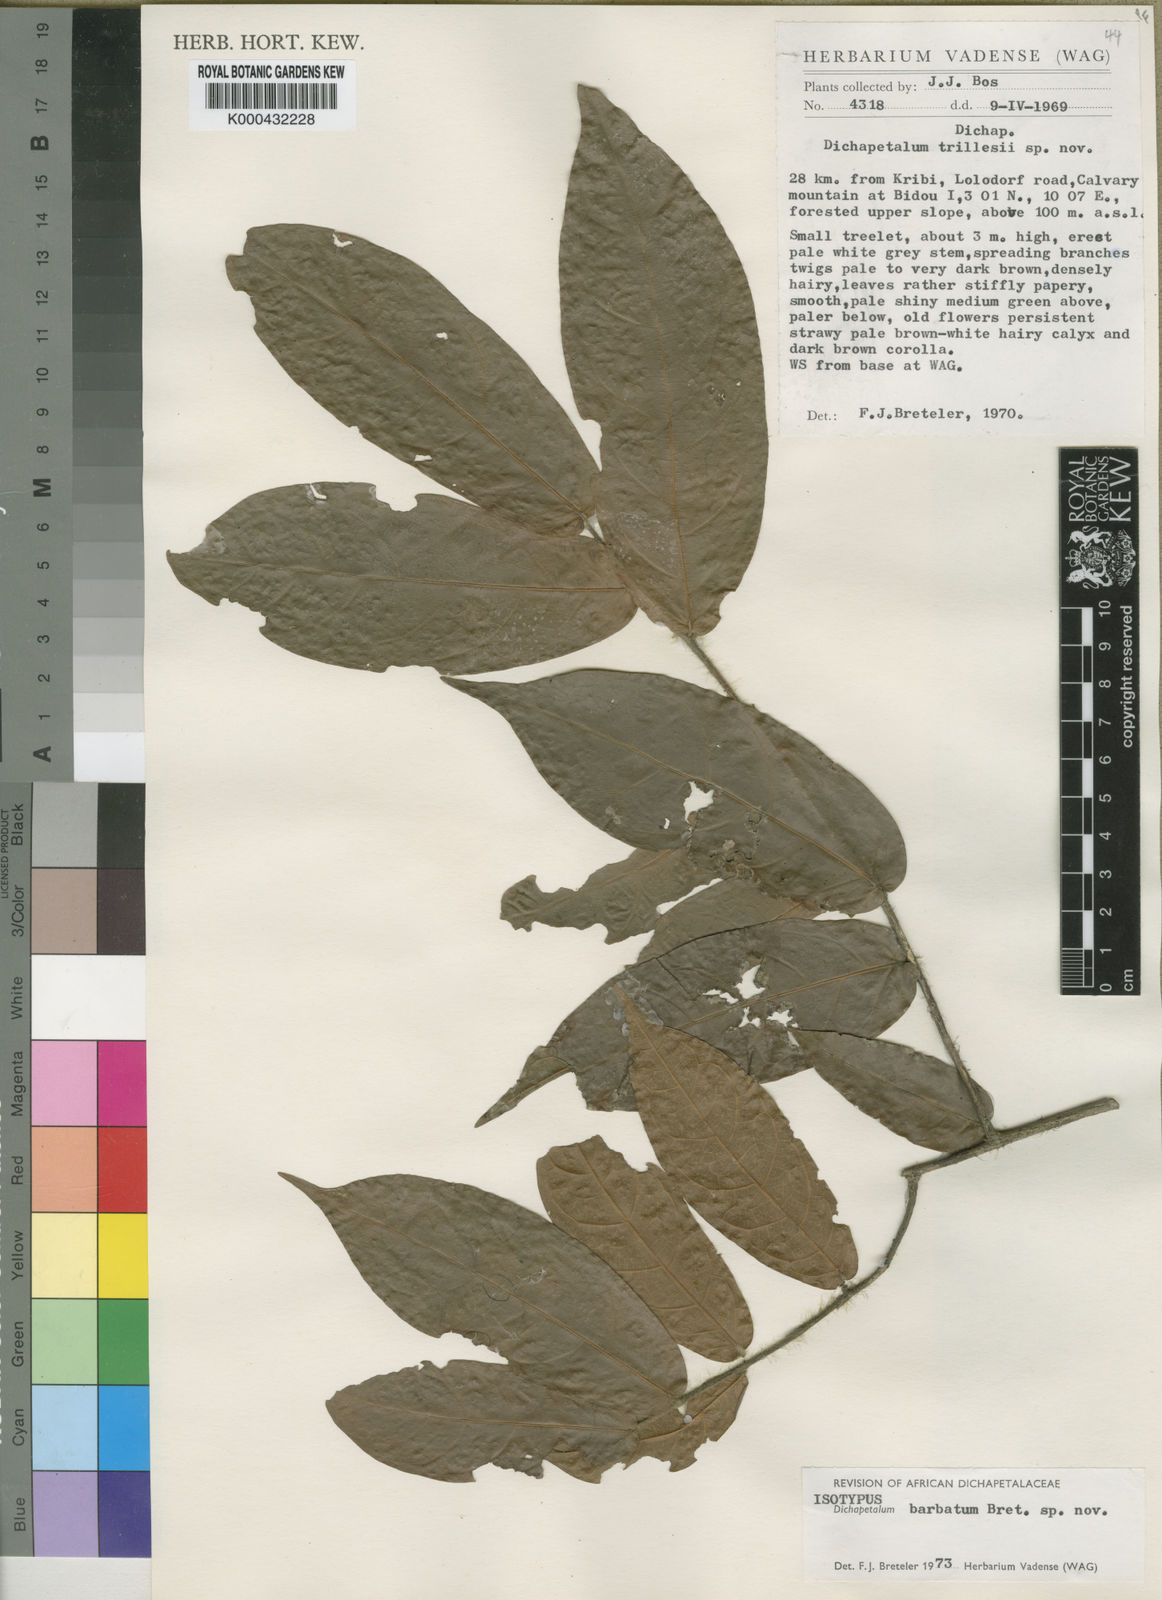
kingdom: Plantae
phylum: Tracheophyta
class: Magnoliopsida
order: Malpighiales
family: Dichapetalaceae
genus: Dichapetalum
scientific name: Dichapetalum barbatum
